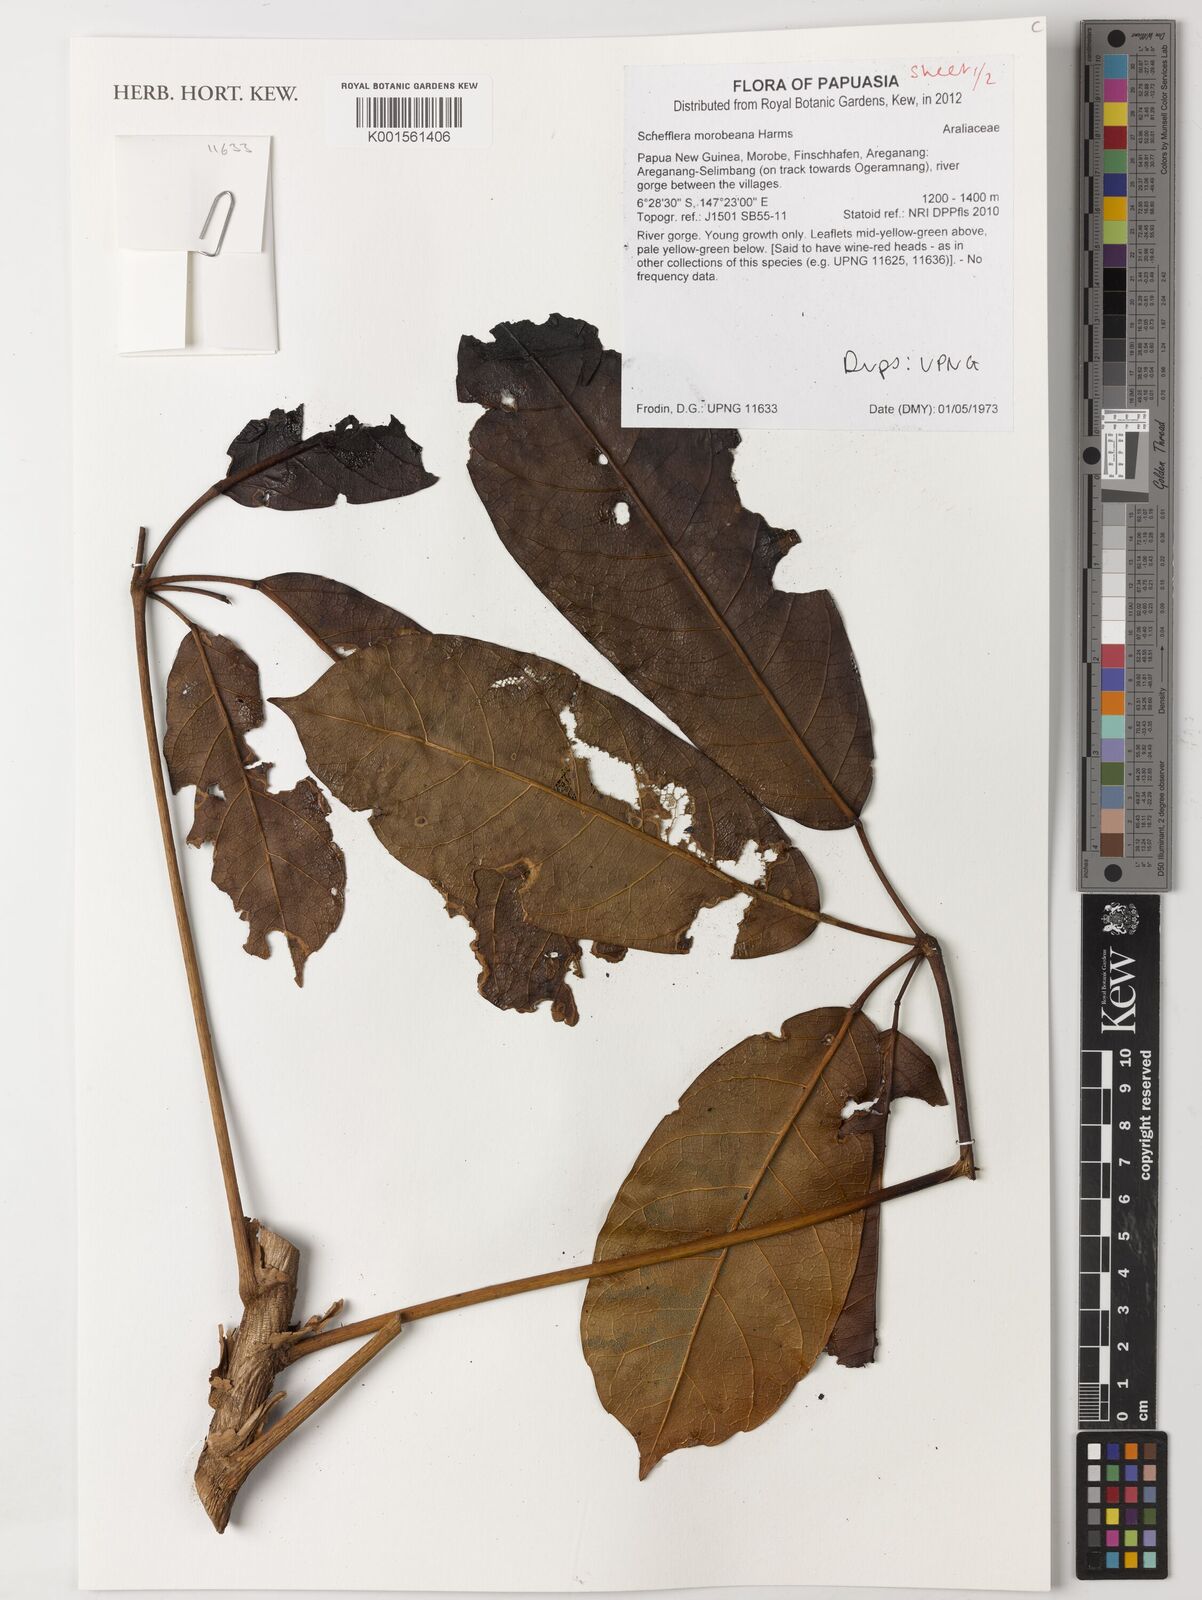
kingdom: Plantae
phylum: Tracheophyta
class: Magnoliopsida
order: Apiales
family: Araliaceae
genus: Heptapleurum
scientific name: Heptapleurum morobeanum
